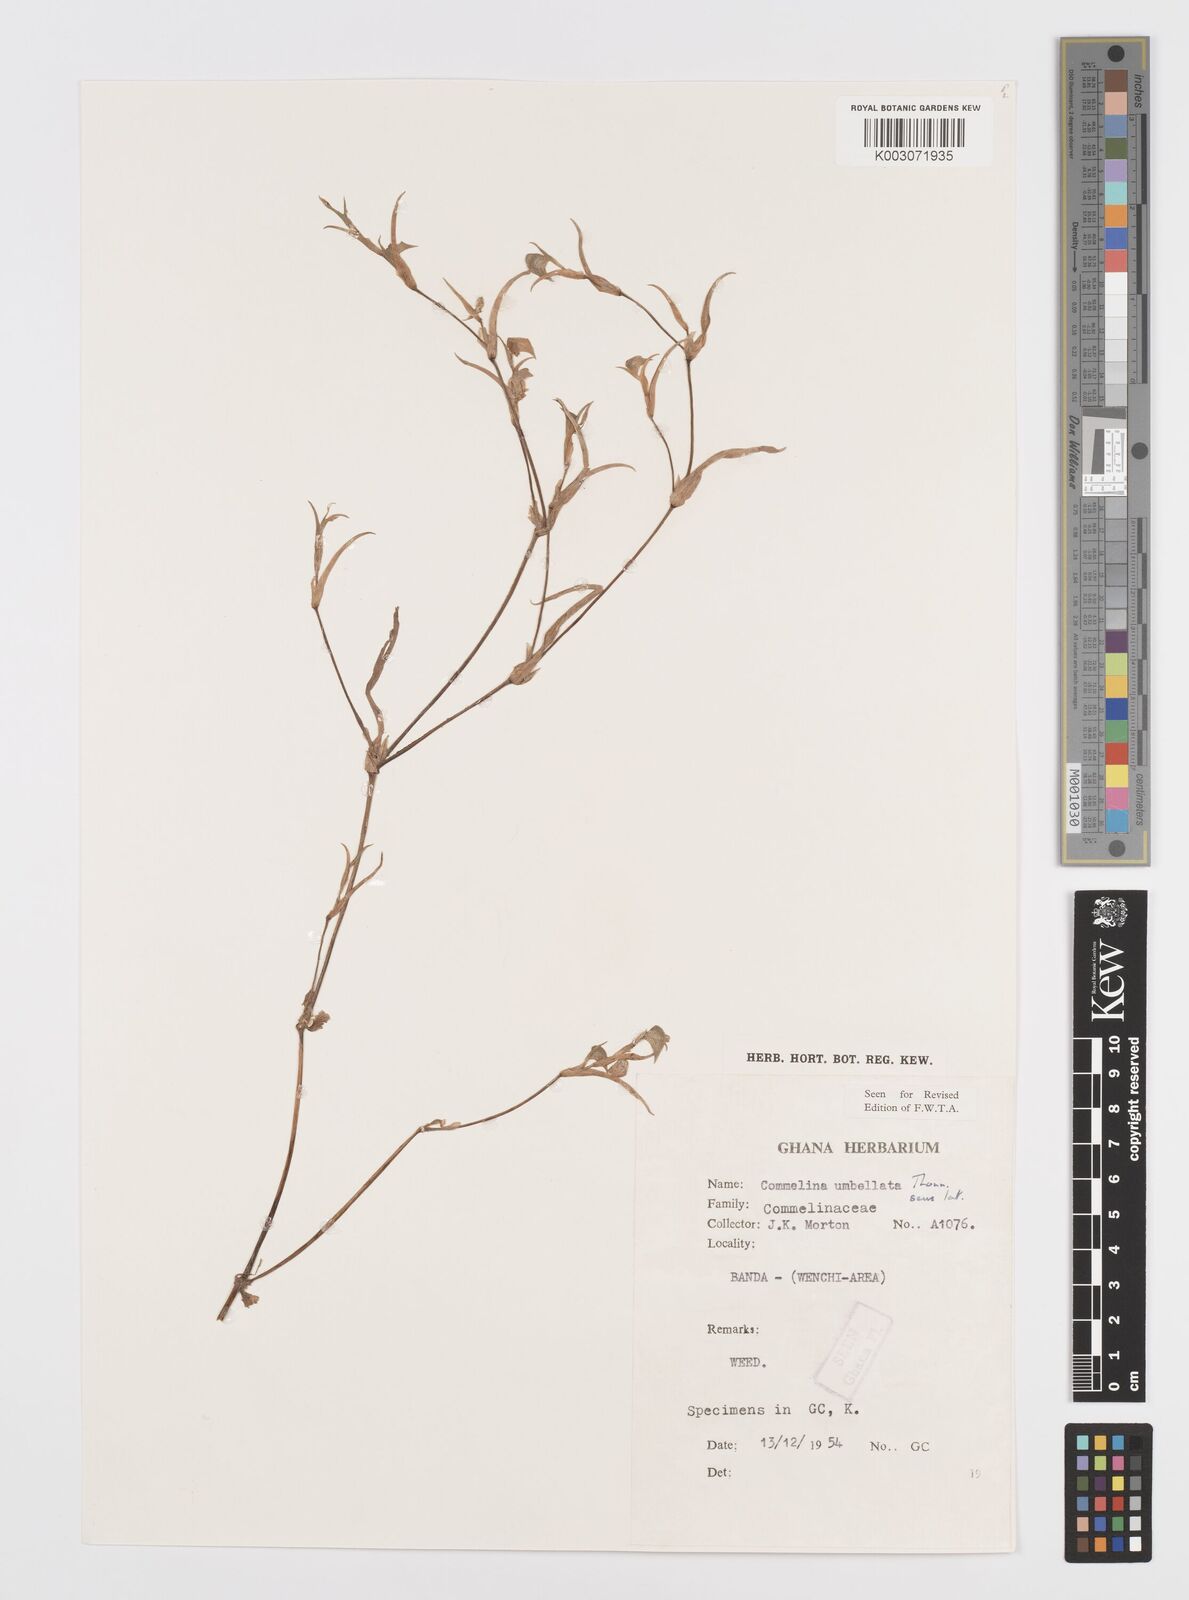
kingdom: Plantae
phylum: Tracheophyta
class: Liliopsida
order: Commelinales
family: Commelinaceae
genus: Commelina
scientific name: Commelina
